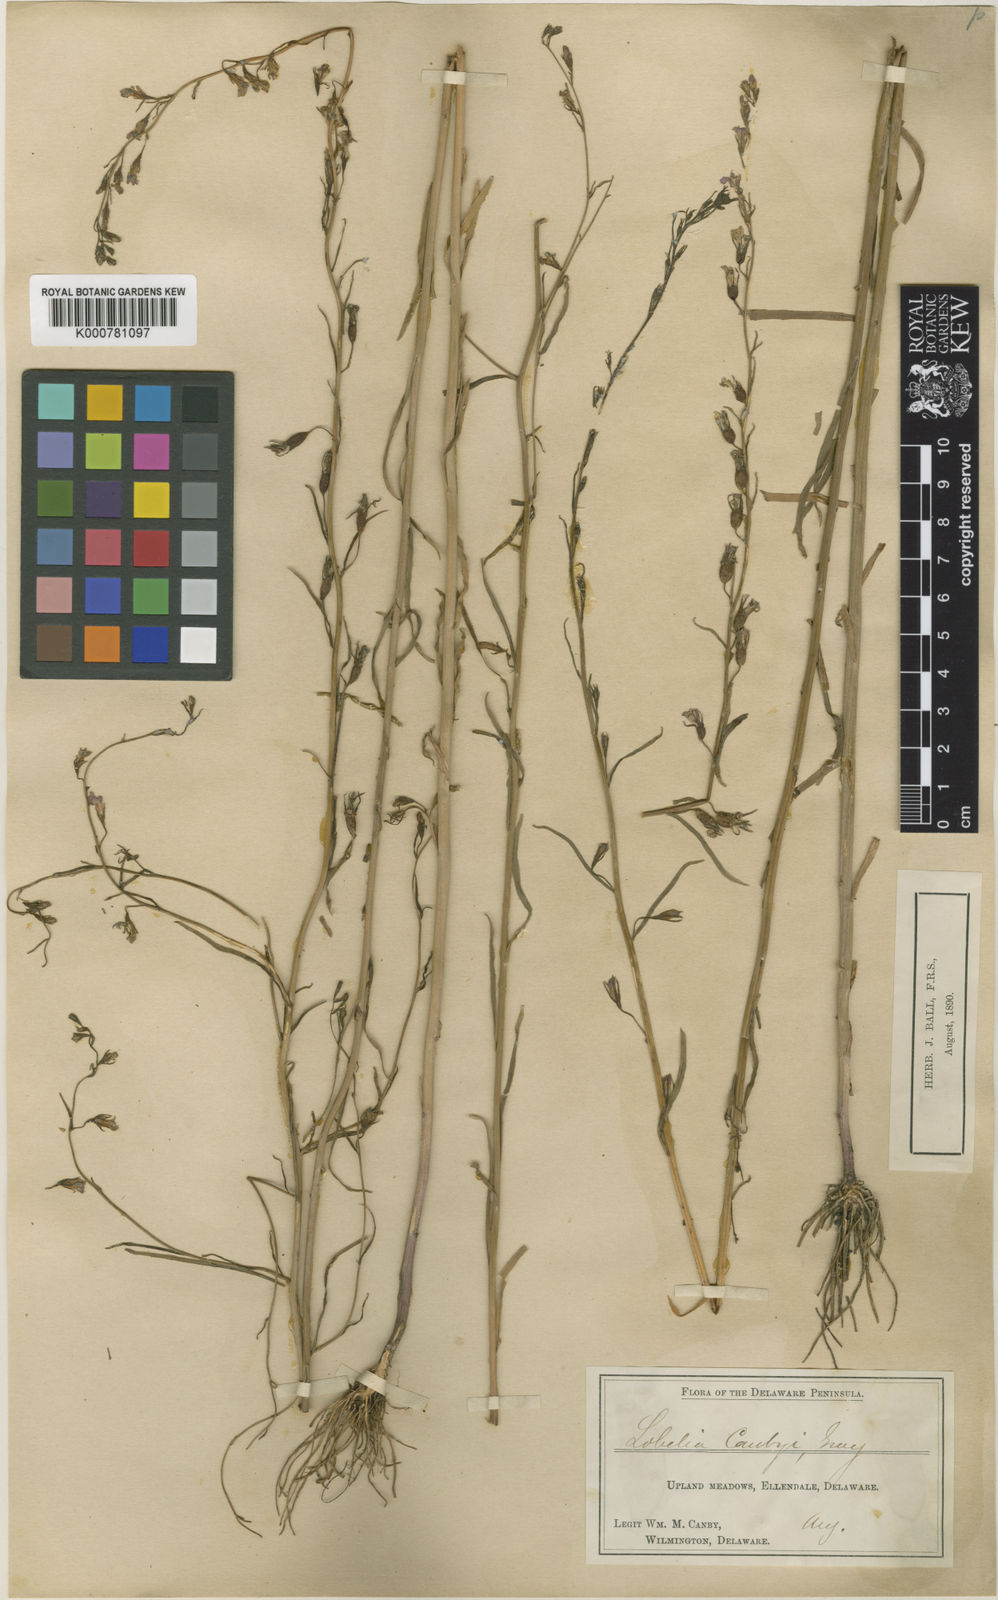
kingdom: Plantae
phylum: Tracheophyta
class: Magnoliopsida
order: Asterales
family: Campanulaceae
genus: Lobelia
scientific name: Lobelia canbyi
